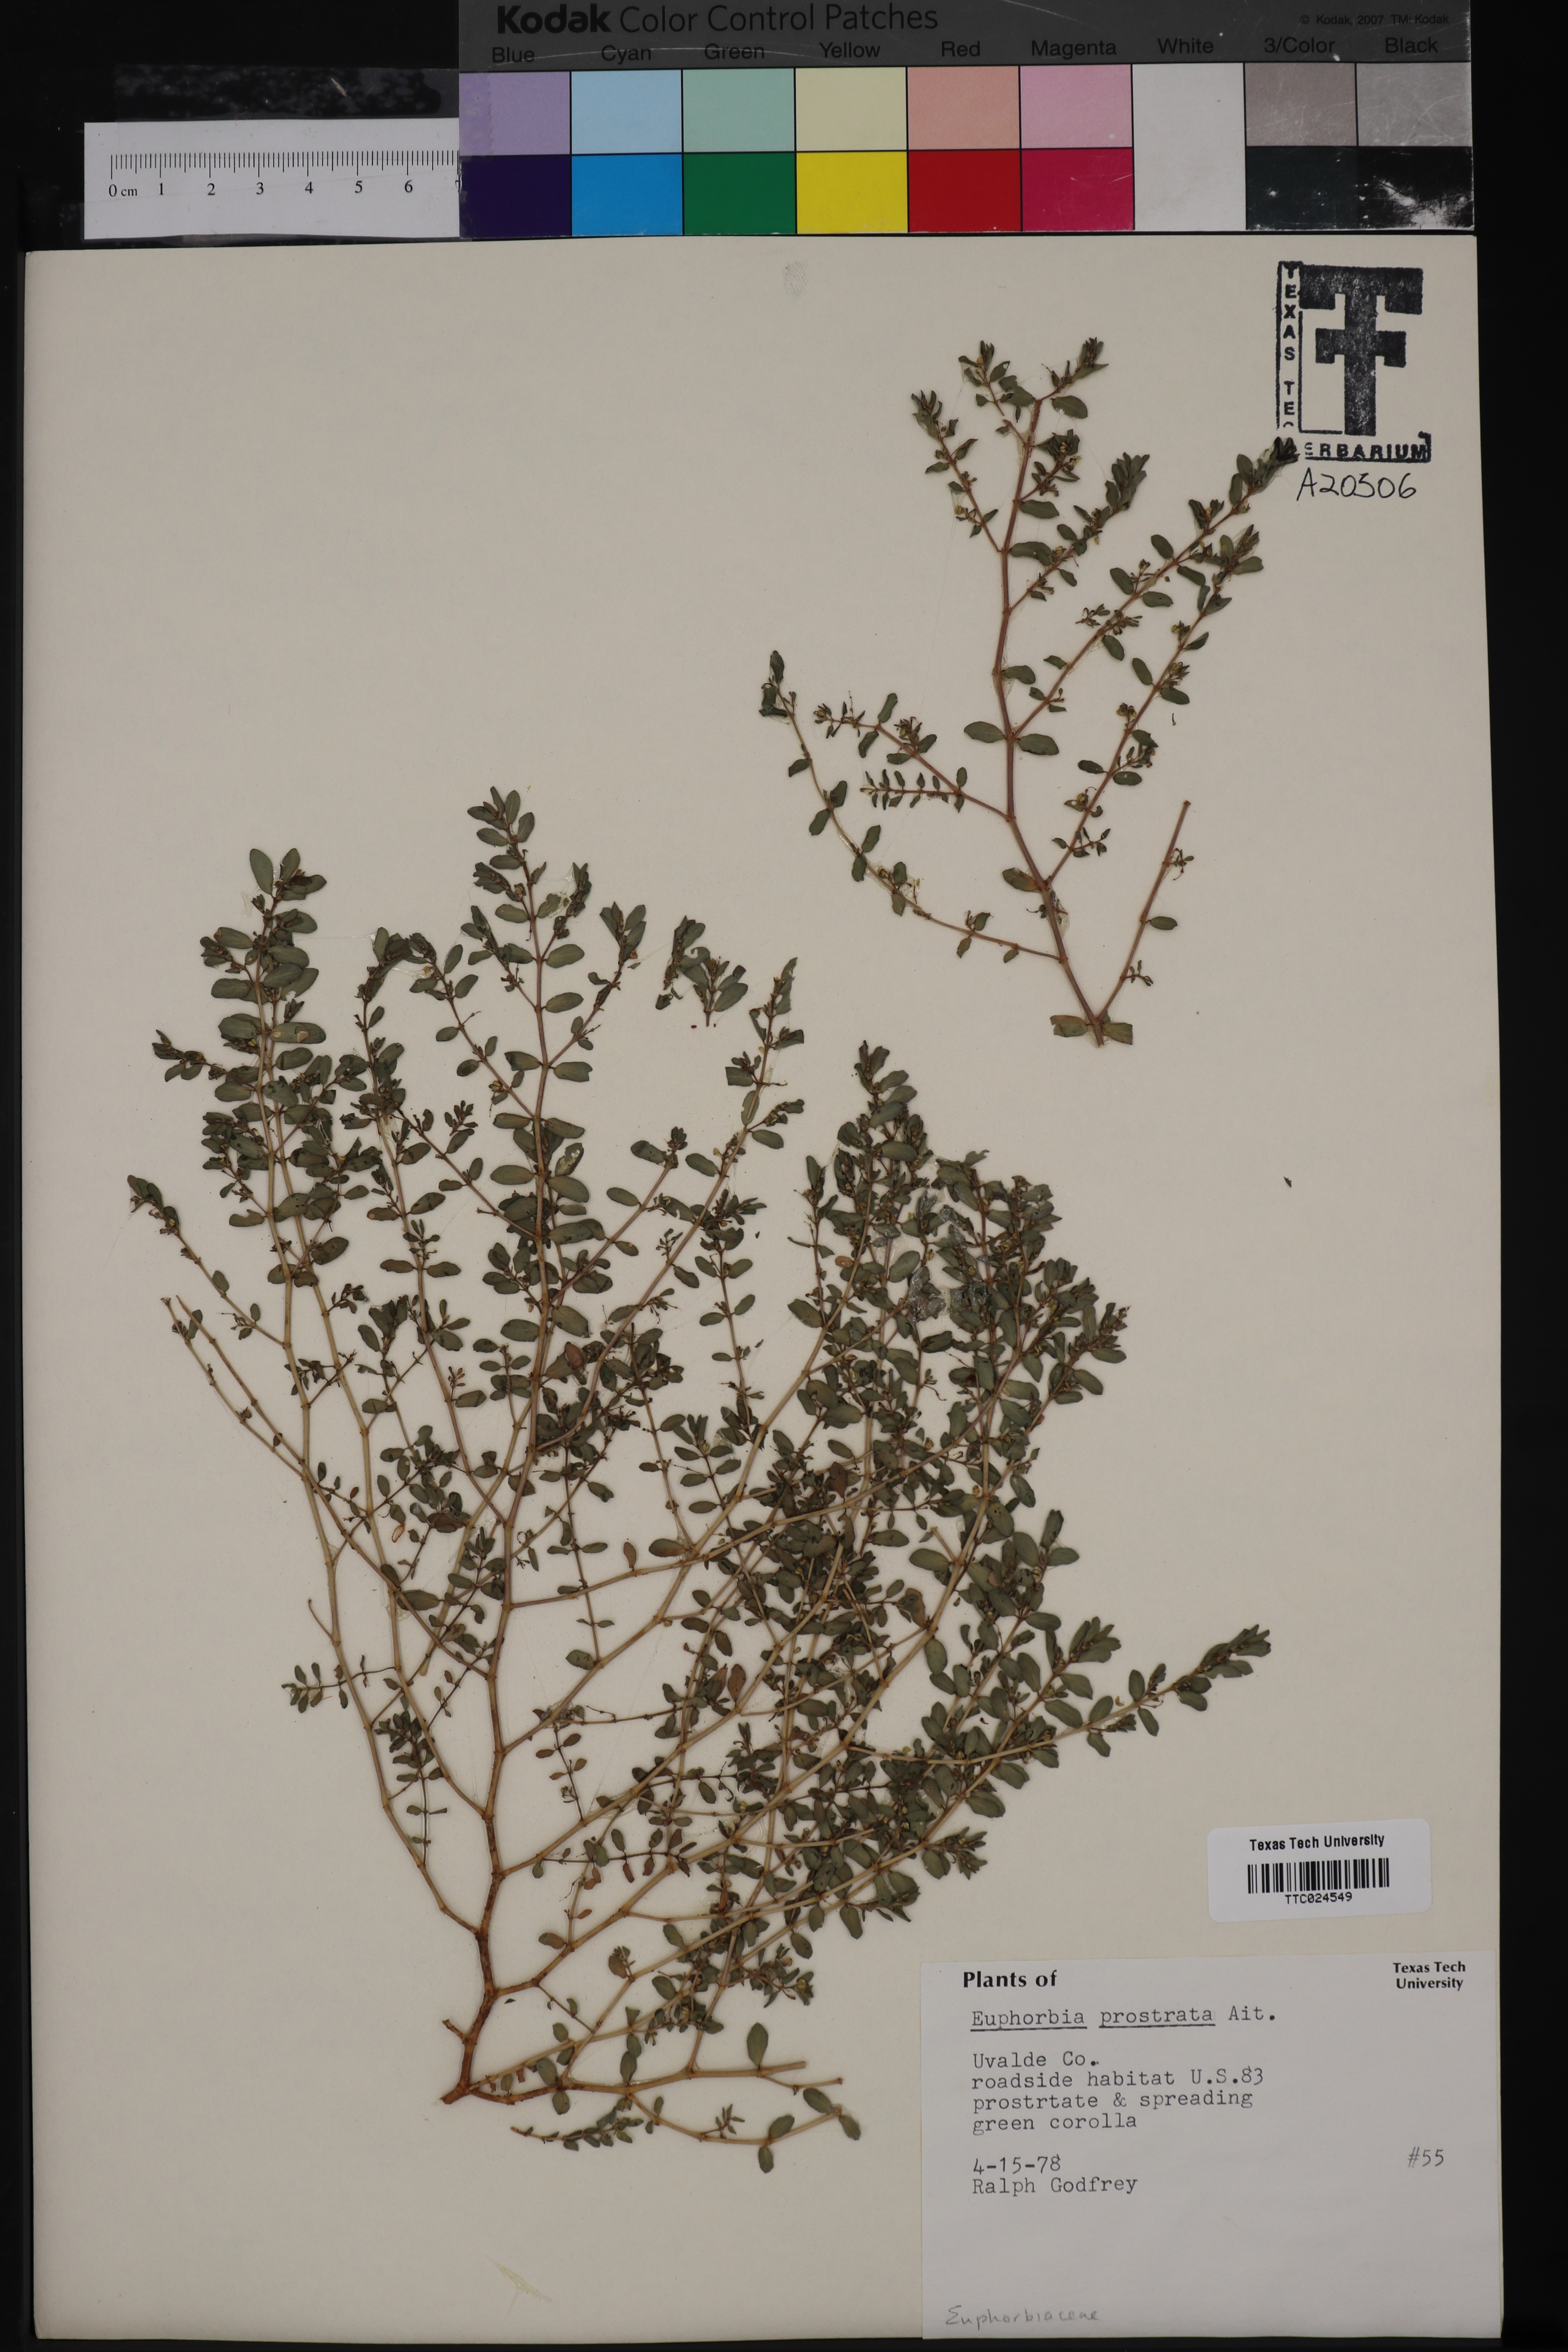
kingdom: Plantae
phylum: Tracheophyta
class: Magnoliopsida
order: Malpighiales
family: Euphorbiaceae
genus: Euphorbia
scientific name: Euphorbia prostrata
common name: Prostrate sandmat
